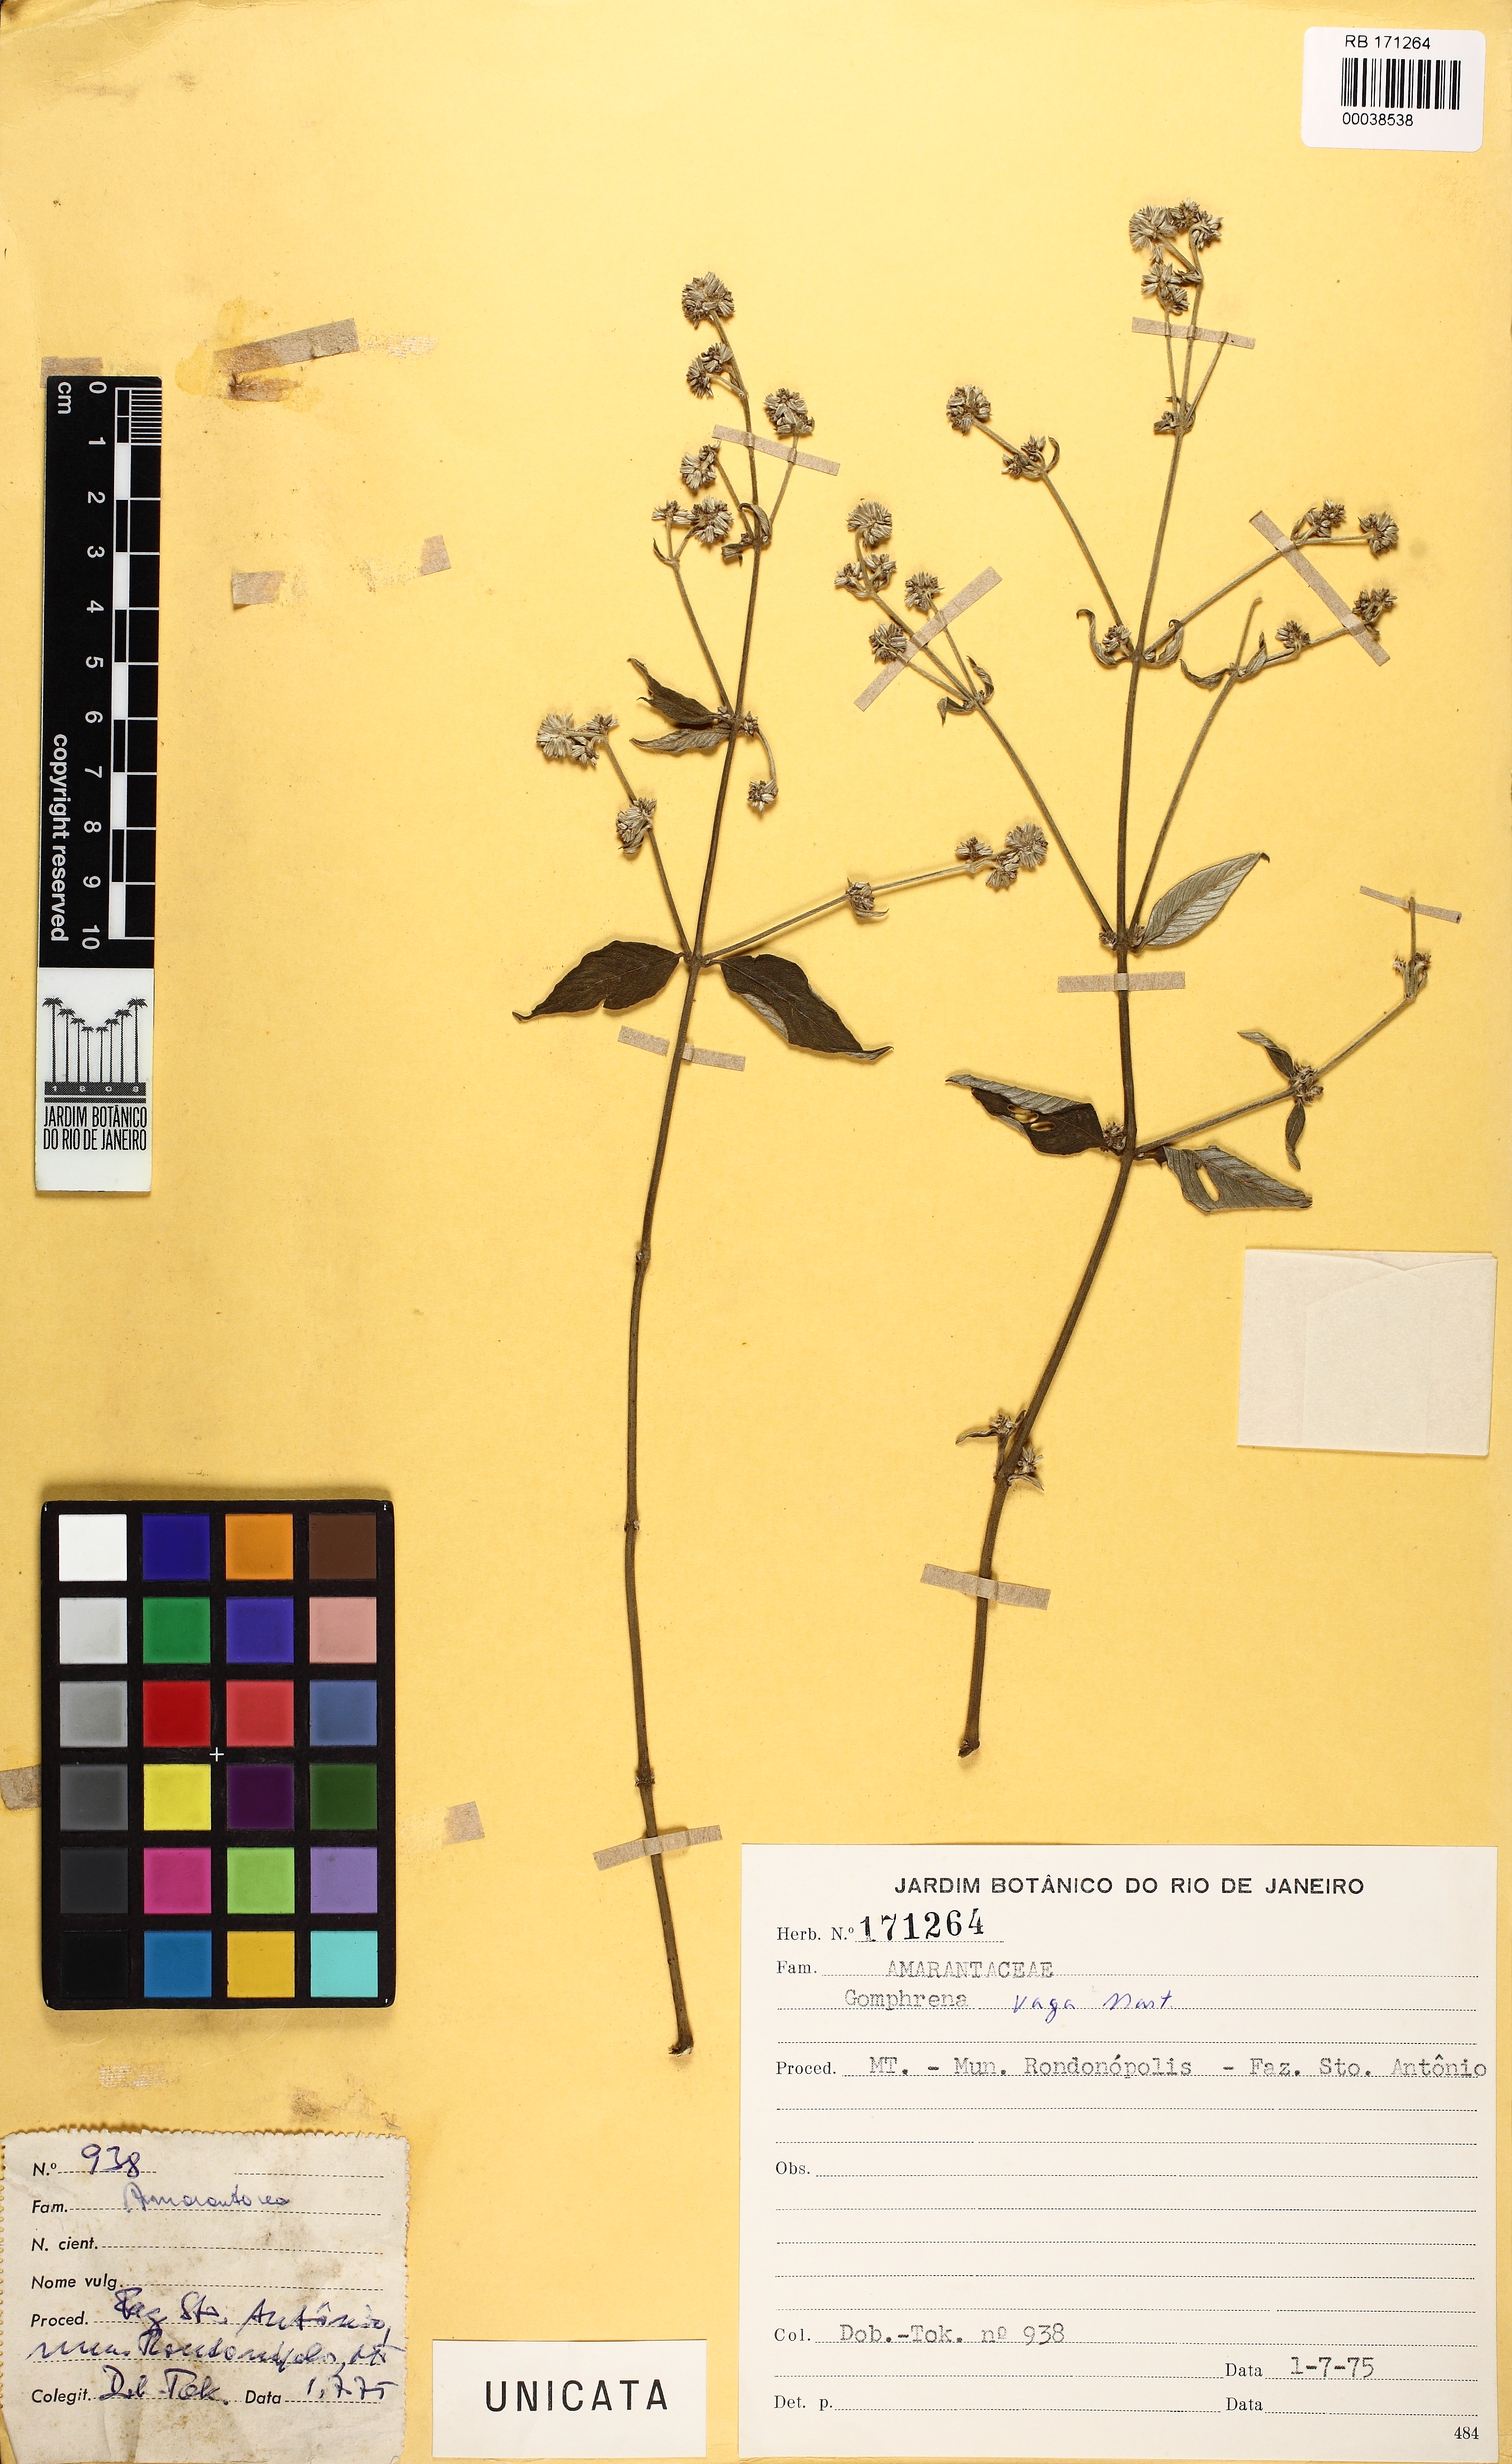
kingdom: Plantae
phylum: Tracheophyta
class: Magnoliopsida
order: Caryophyllales
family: Amaranthaceae
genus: Gomphrena
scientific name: Gomphrena vaga
